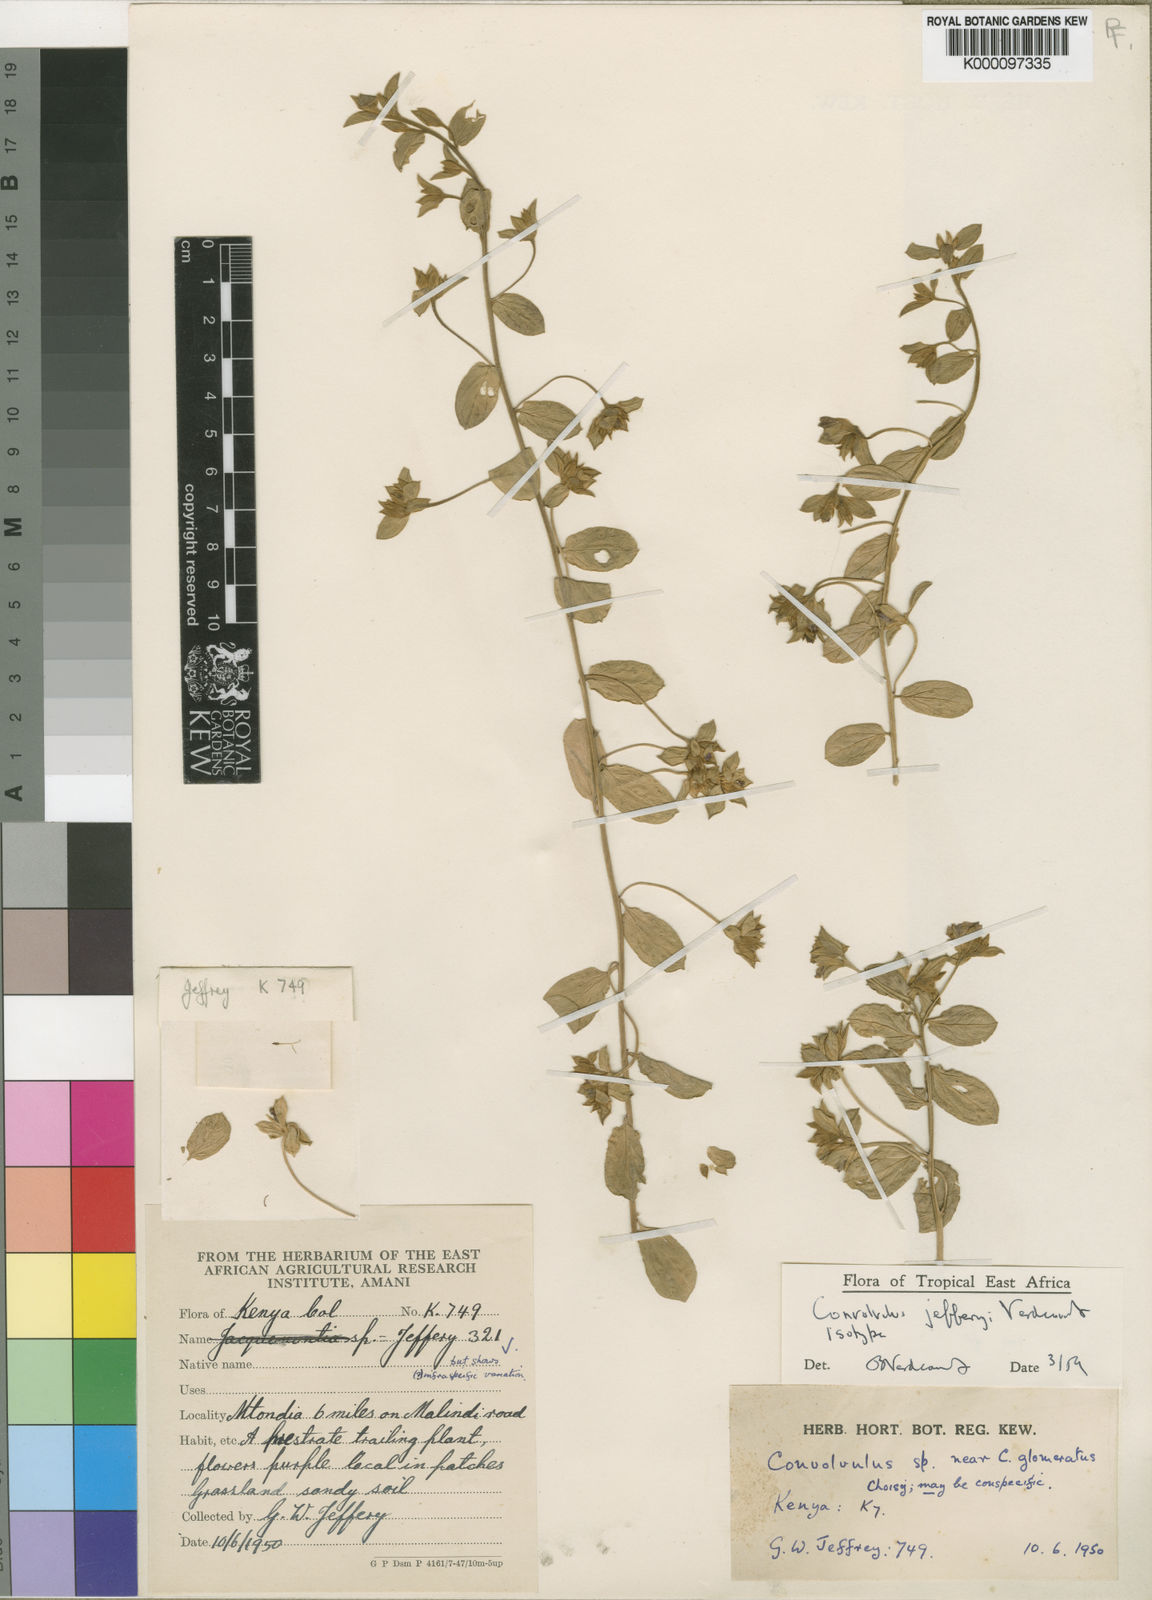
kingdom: Plantae
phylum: Tracheophyta
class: Magnoliopsida
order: Solanales
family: Convolvulaceae
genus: Convolvulus
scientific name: Convolvulus jefferyi
